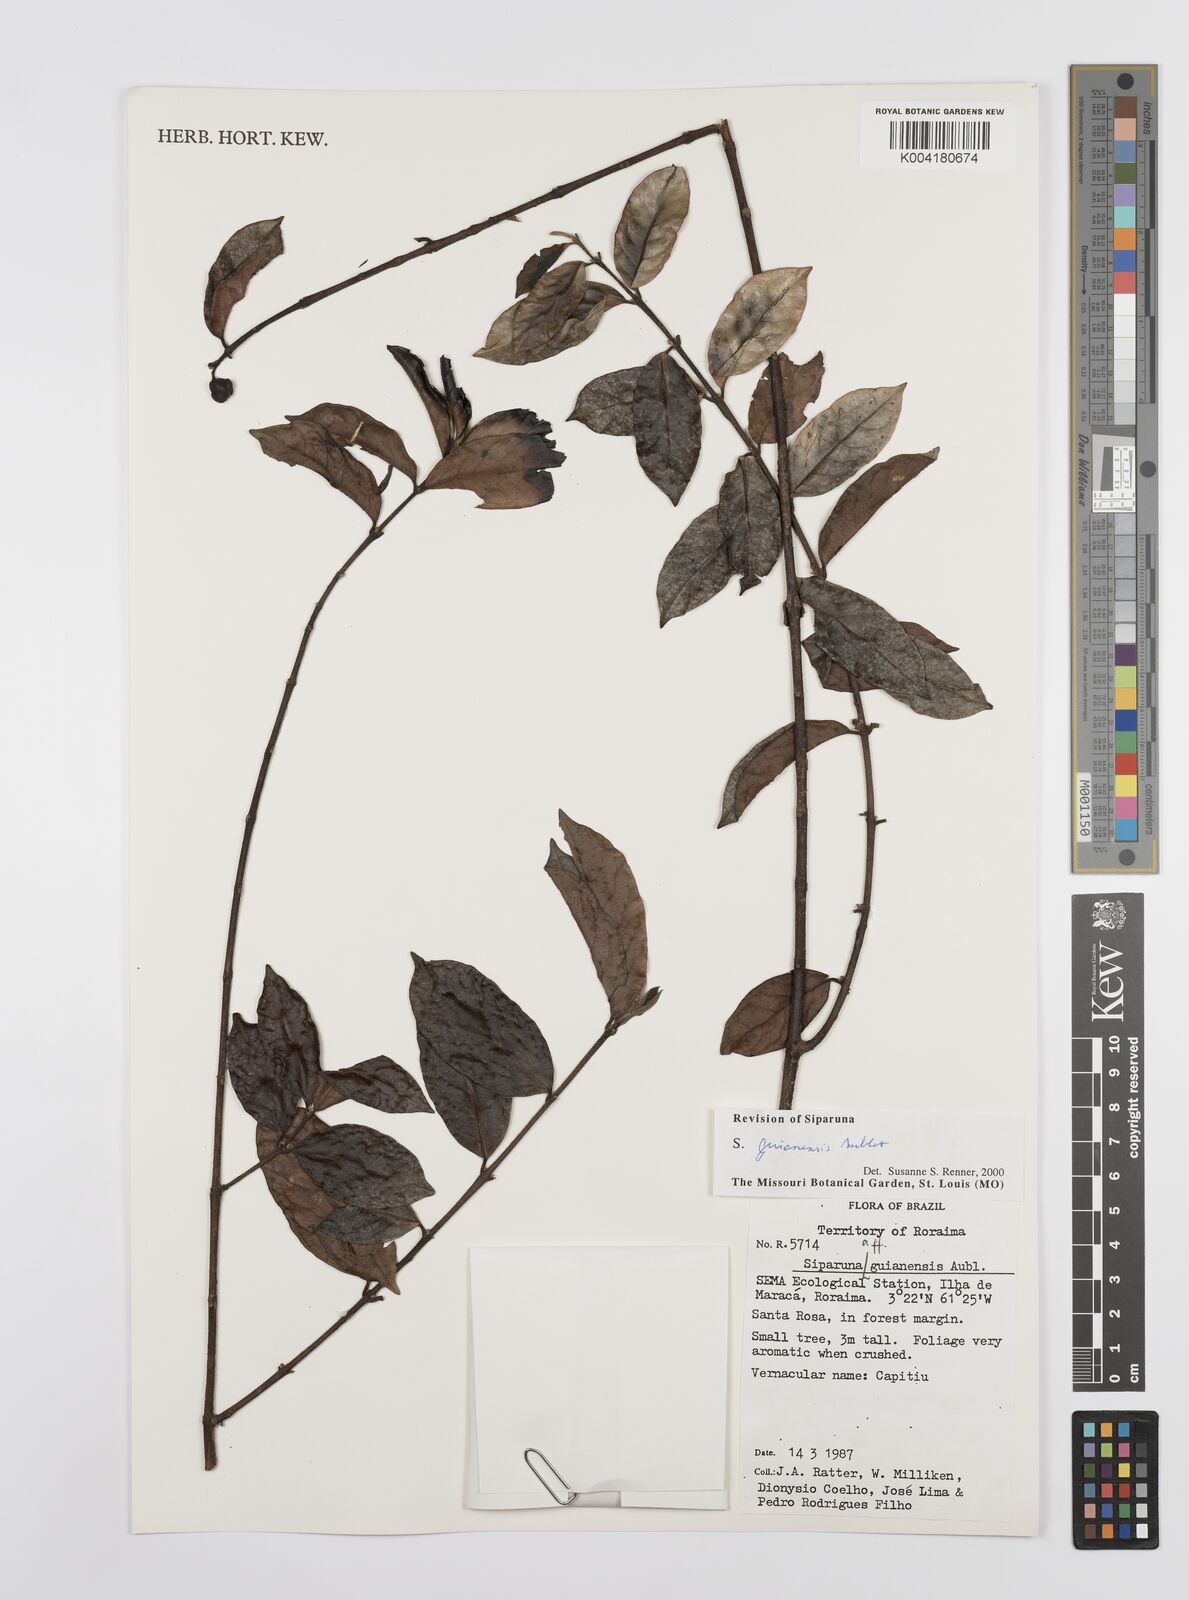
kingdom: Plantae
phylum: Tracheophyta
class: Magnoliopsida
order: Laurales
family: Siparunaceae
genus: Siparuna
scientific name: Siparuna guianensis
